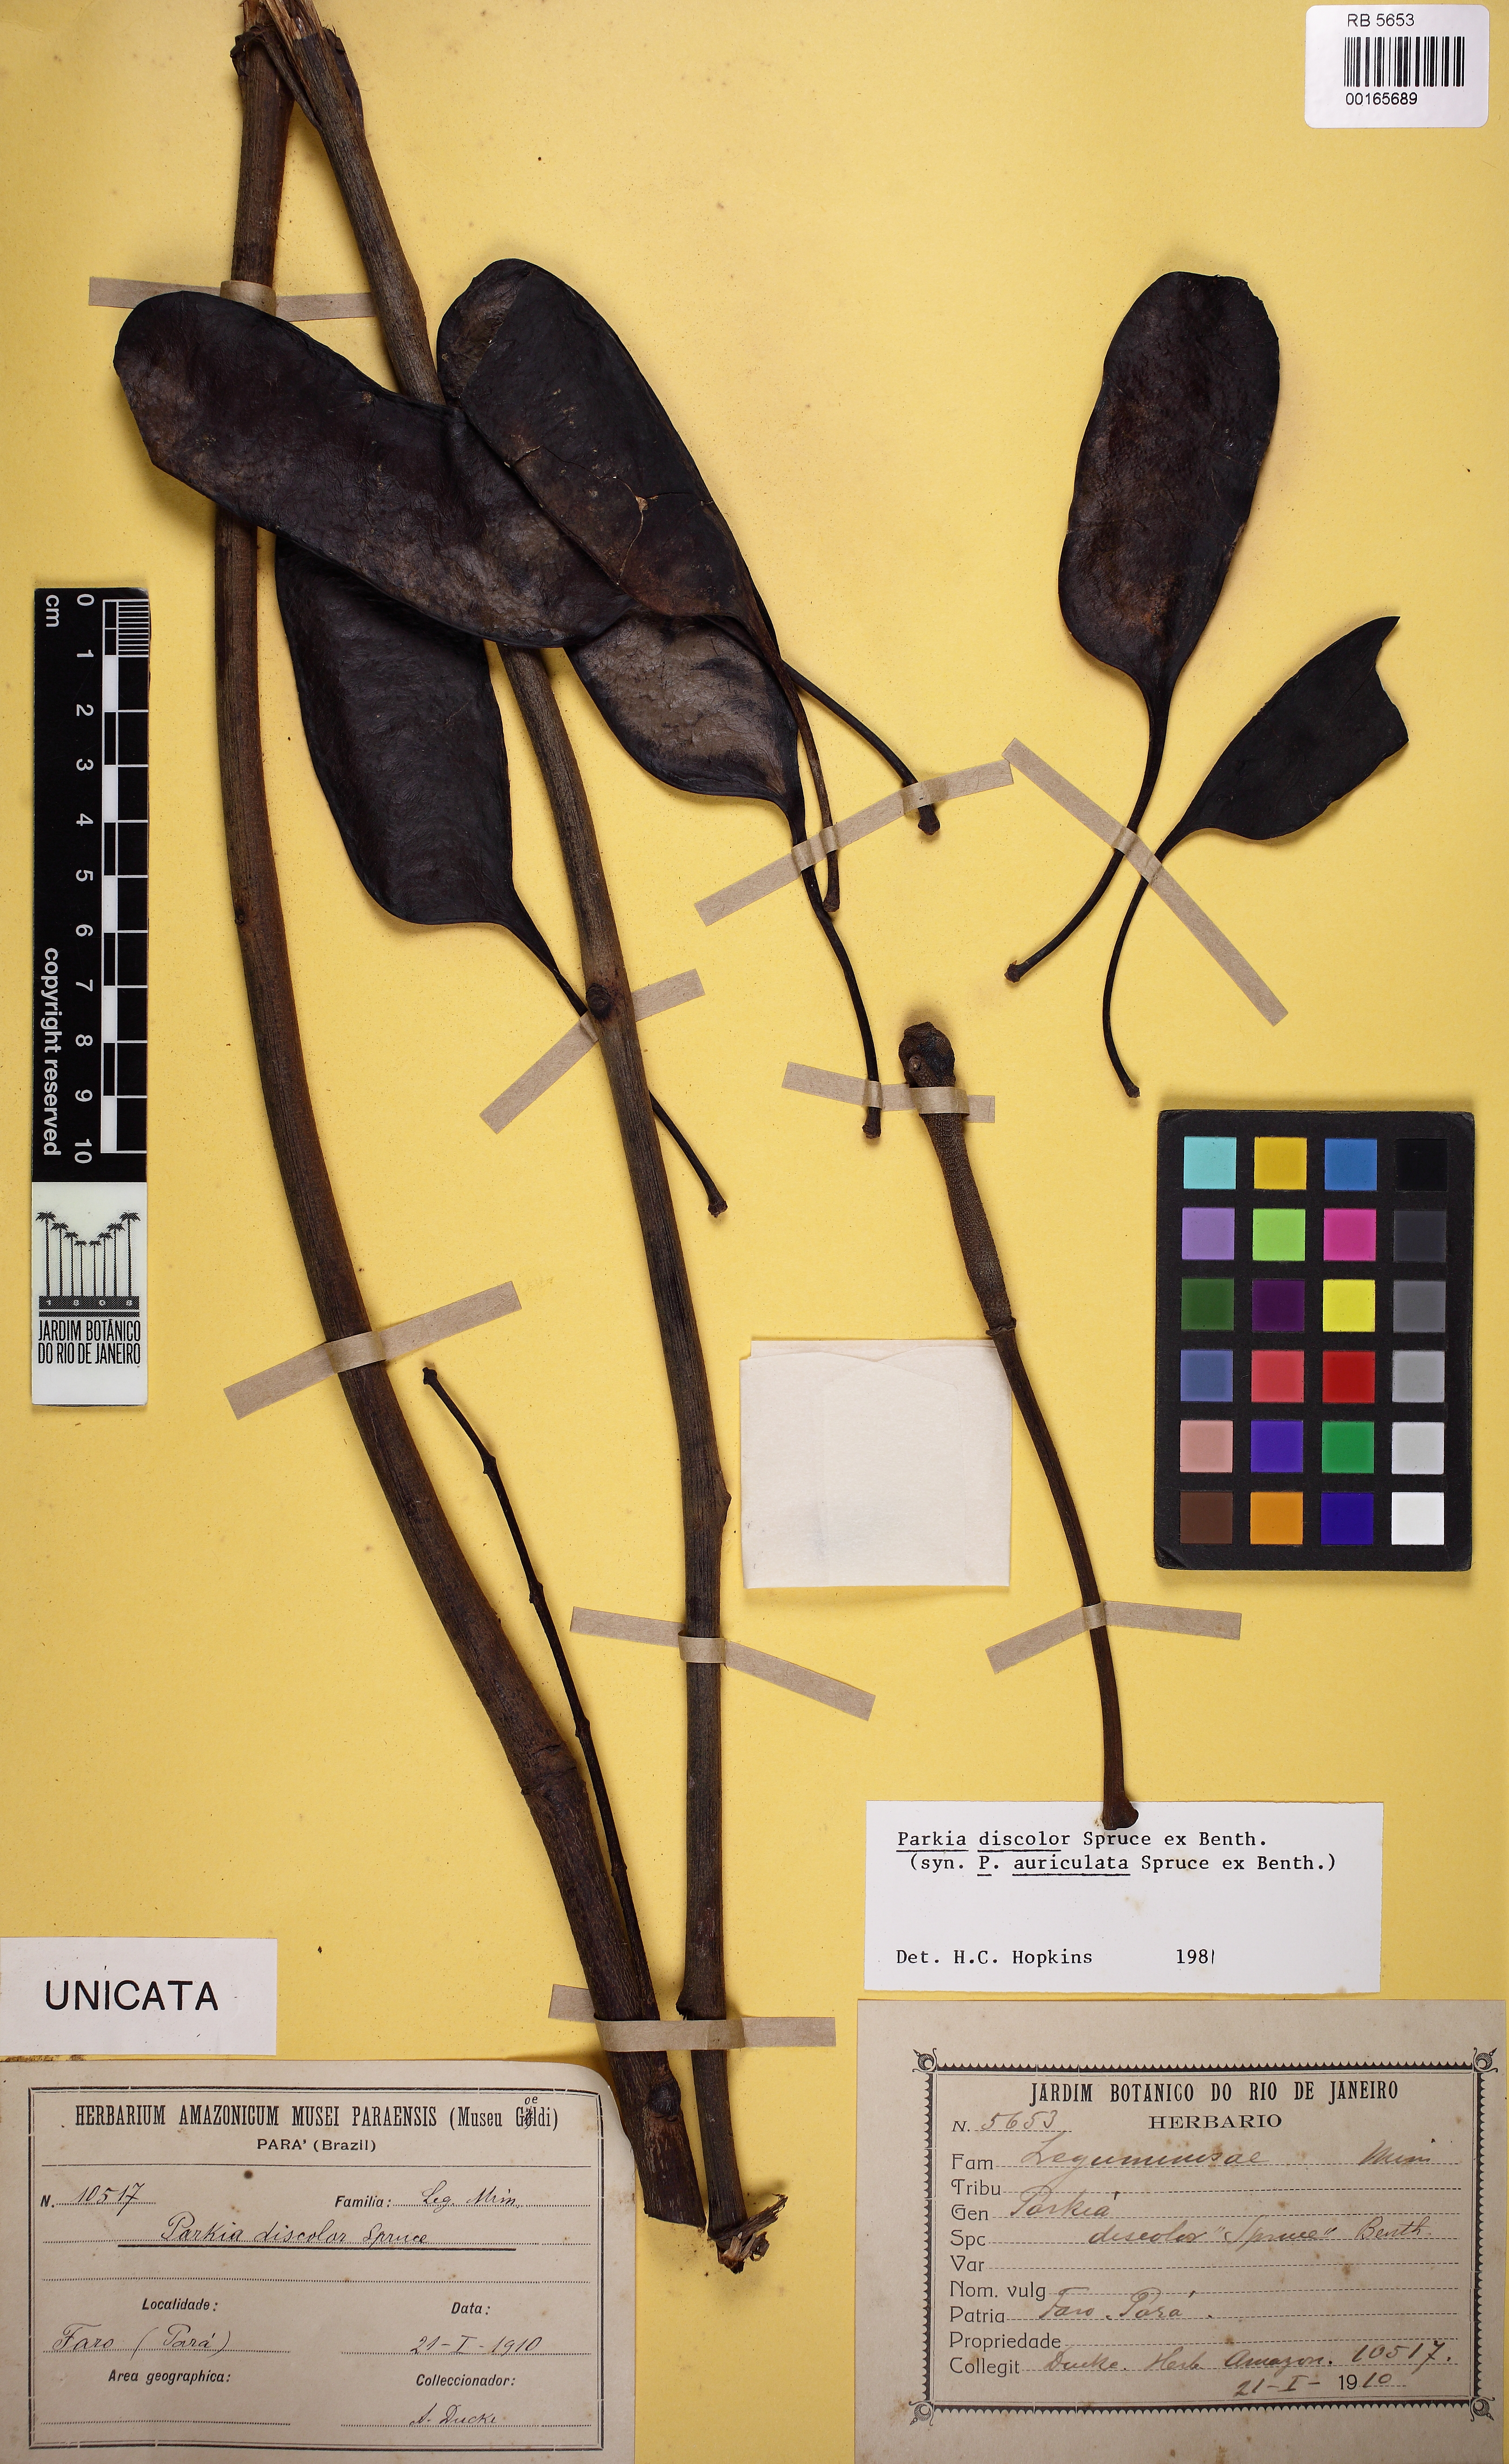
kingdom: Plantae
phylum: Tracheophyta
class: Magnoliopsida
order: Fabales
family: Fabaceae
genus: Parkia
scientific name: Parkia discolor
